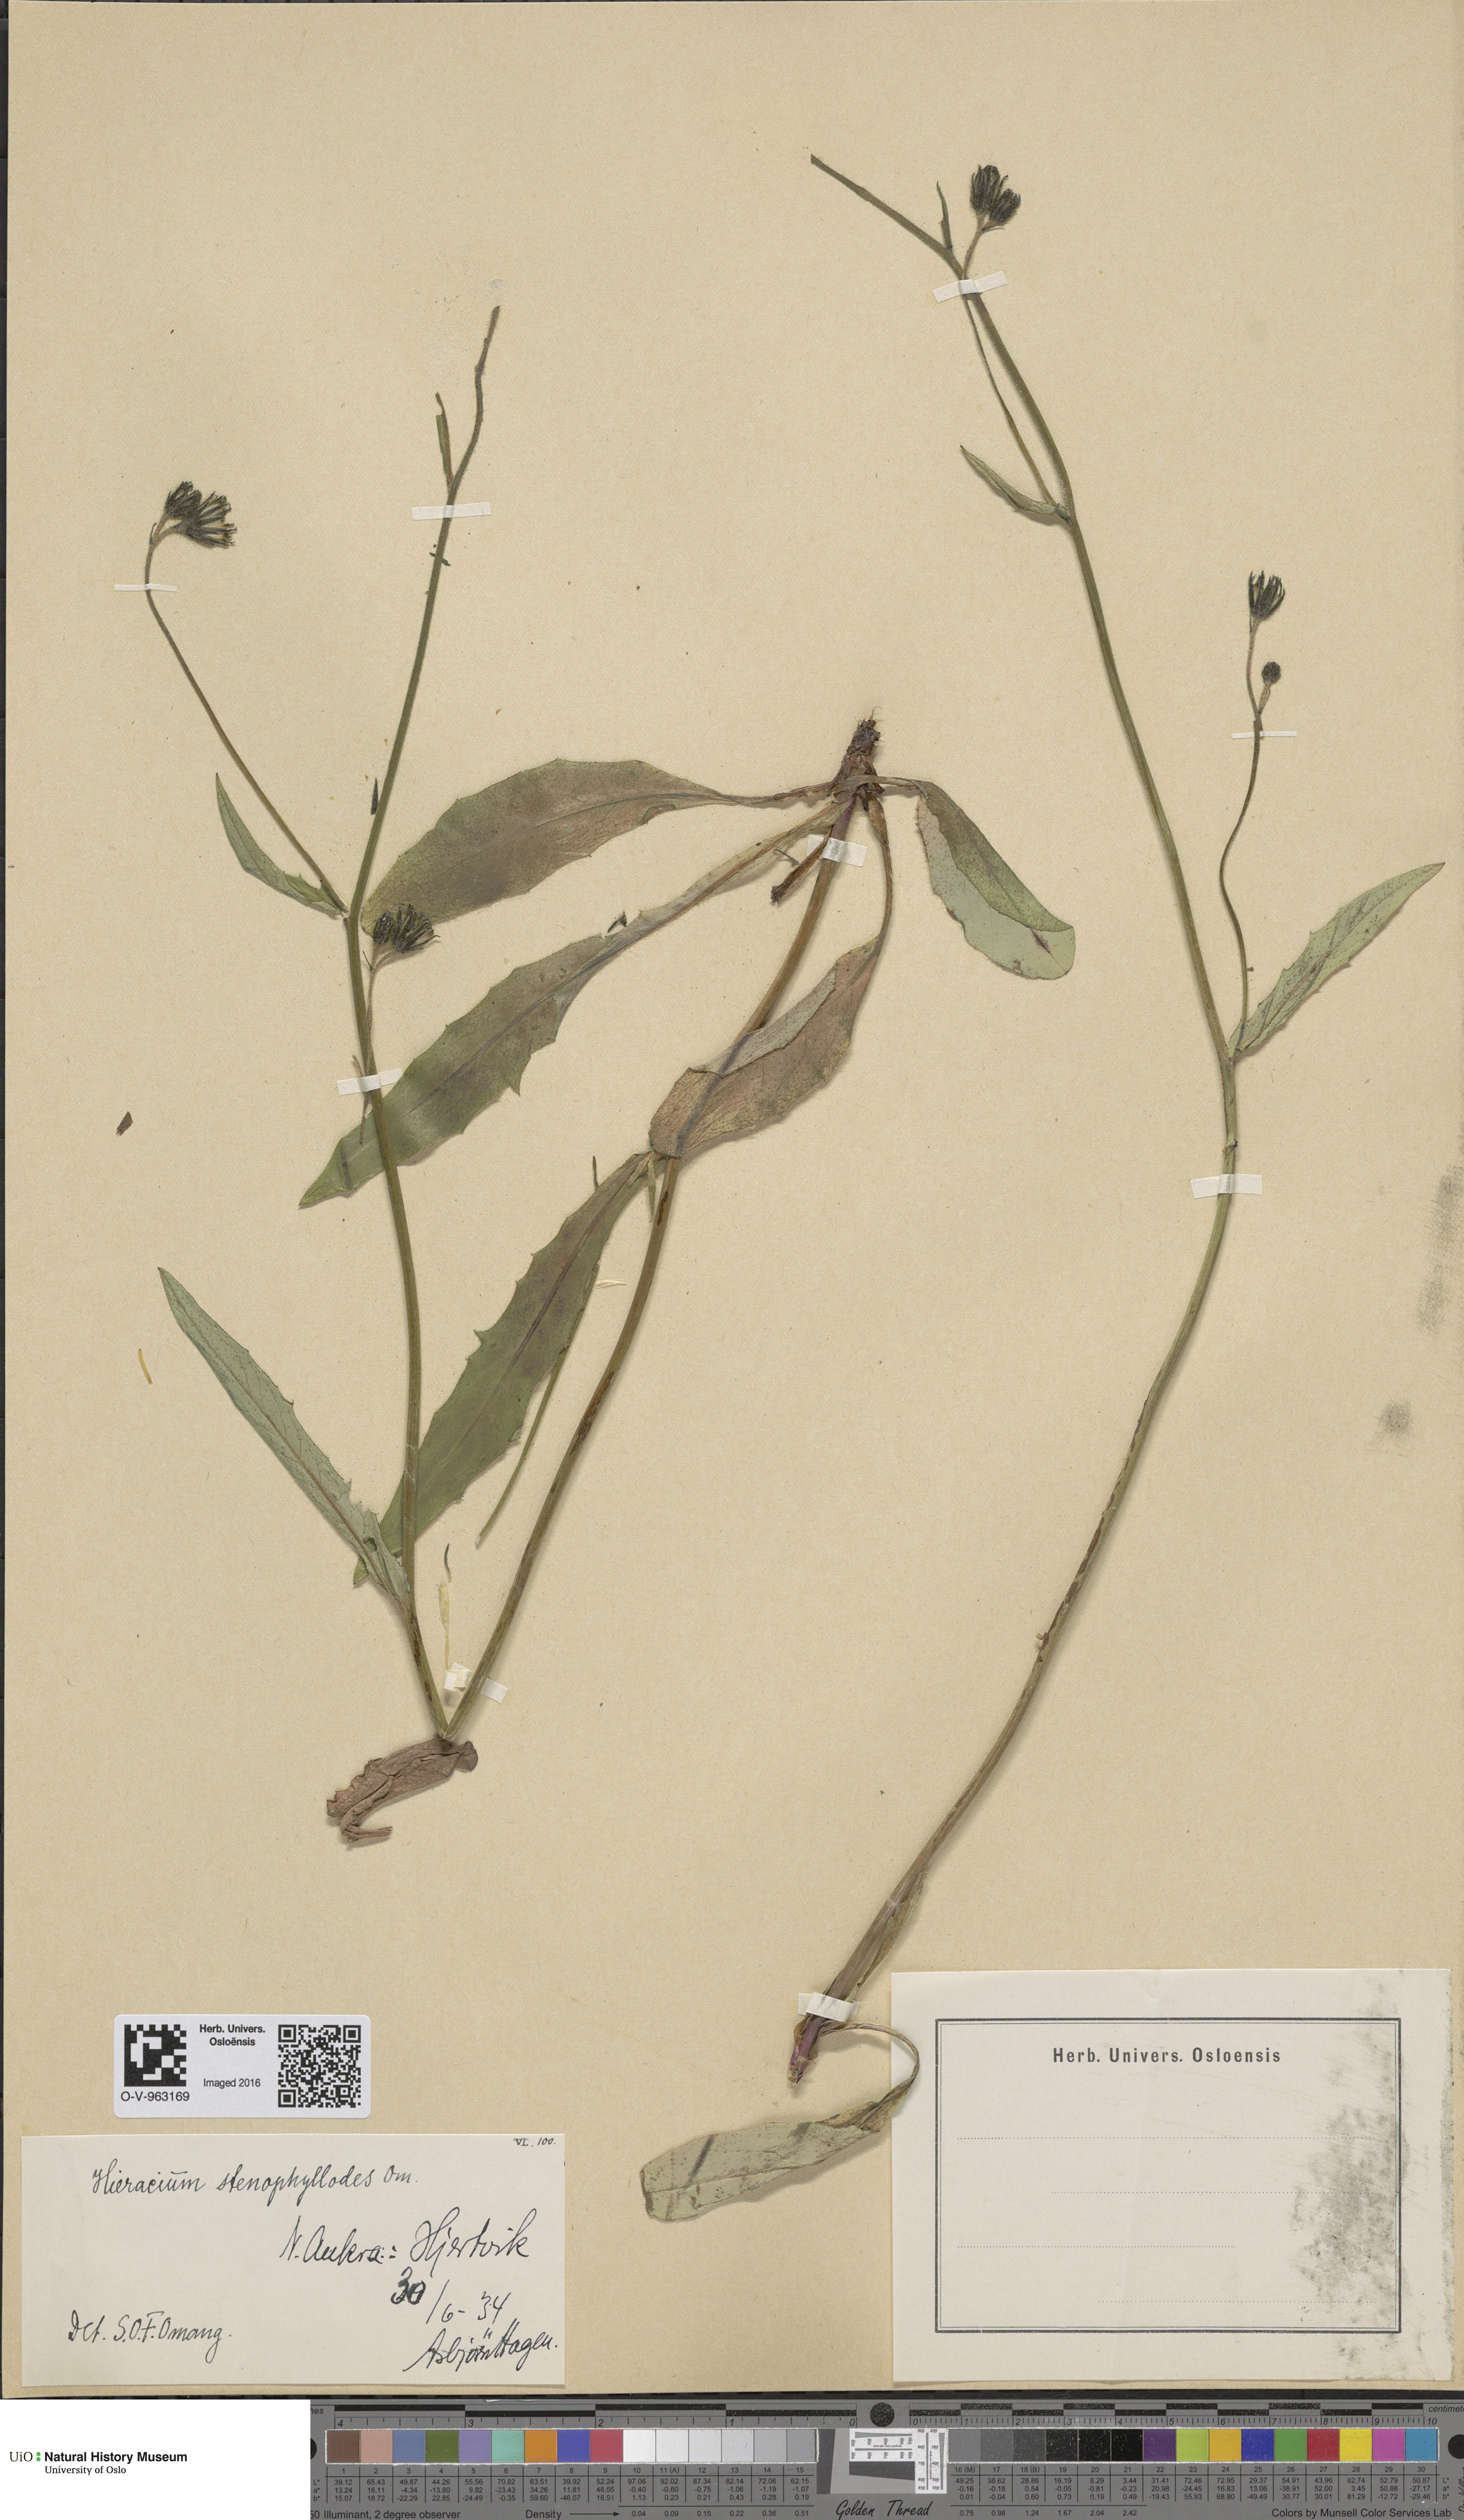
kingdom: Plantae
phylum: Tracheophyta
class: Magnoliopsida
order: Asterales
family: Asteraceae
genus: Hieracium
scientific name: Hieracium
